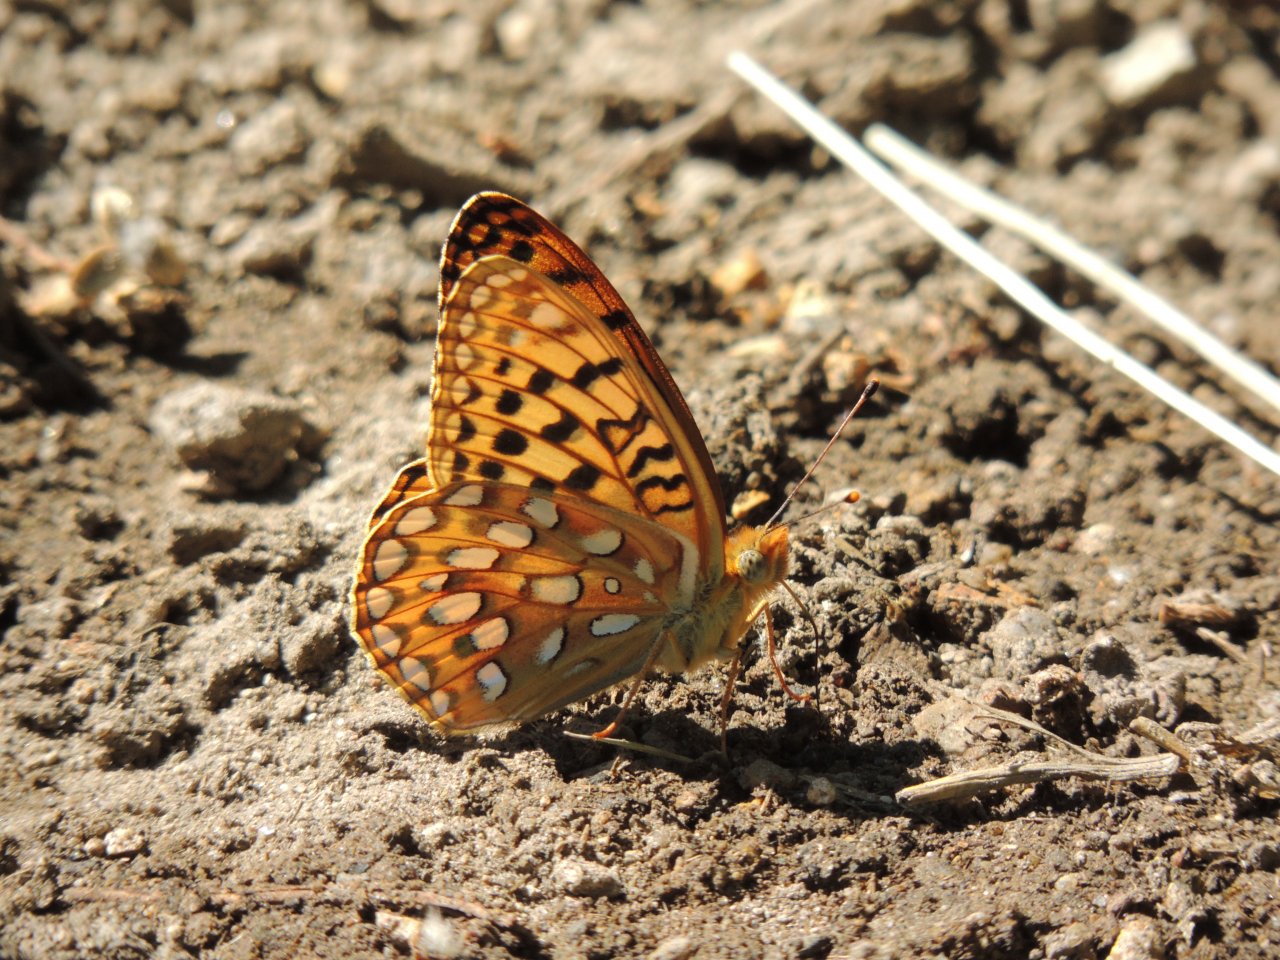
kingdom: Animalia
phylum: Arthropoda
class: Insecta
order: Lepidoptera
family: Nymphalidae
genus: Speyeria
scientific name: Speyeria zerene
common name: Zerene Fritillary
